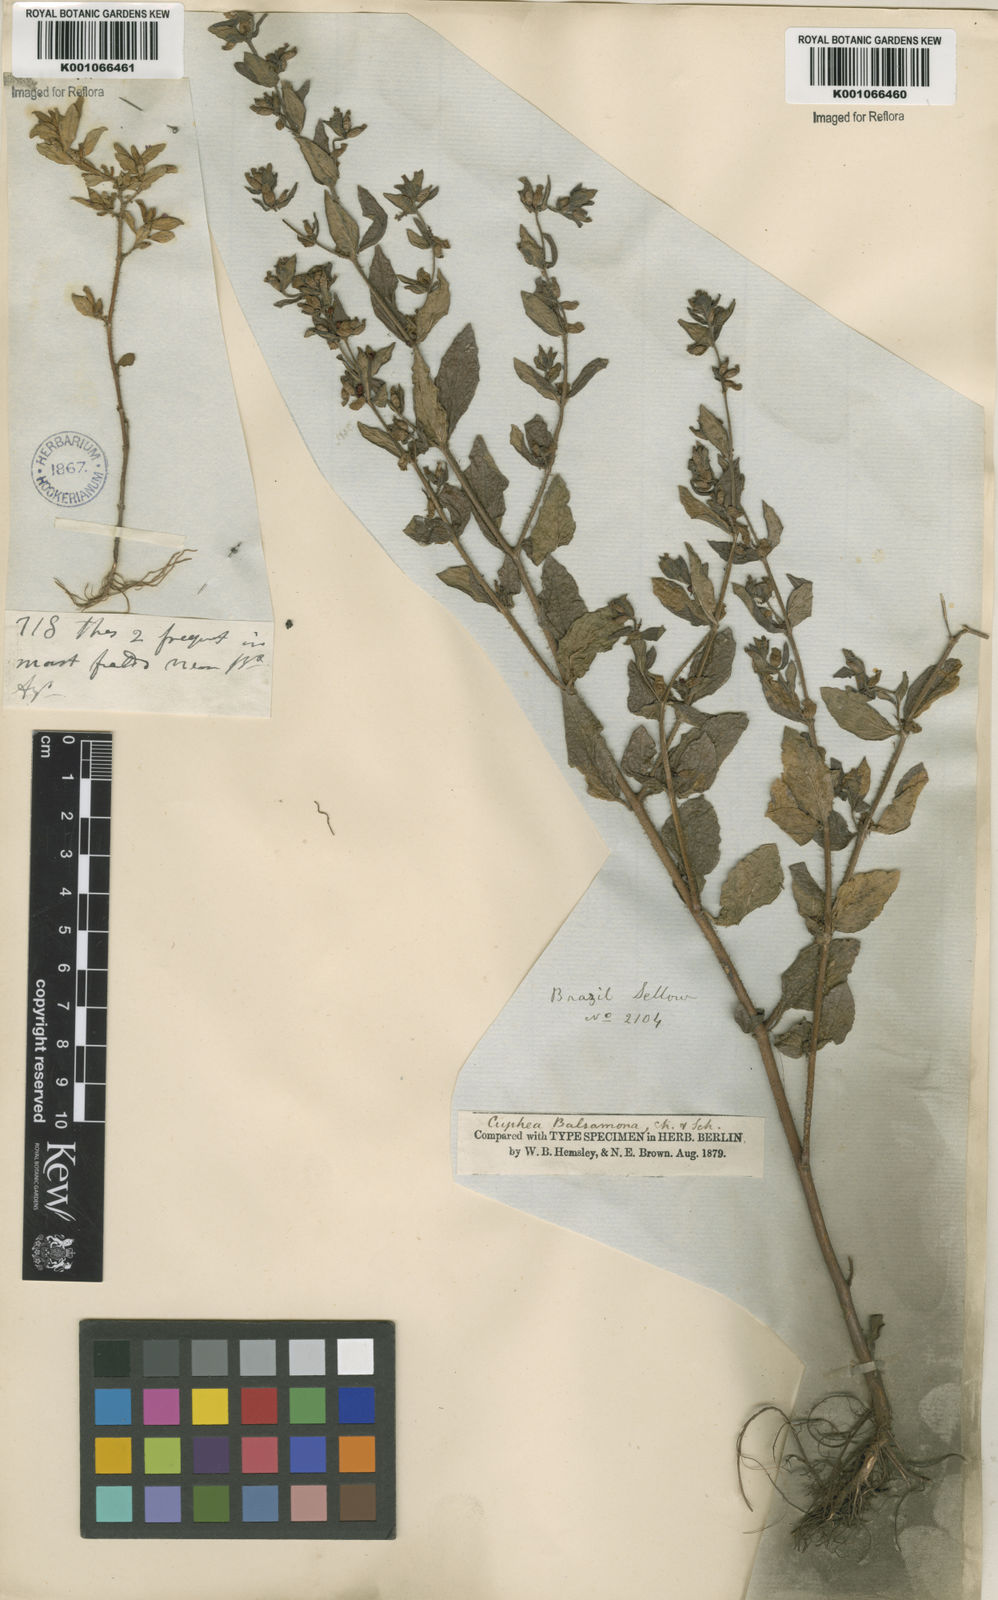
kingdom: Plantae
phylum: Tracheophyta
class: Magnoliopsida
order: Myrtales
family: Lythraceae
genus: Cuphea
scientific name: Cuphea carthagenensis
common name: Colombian waxweed
